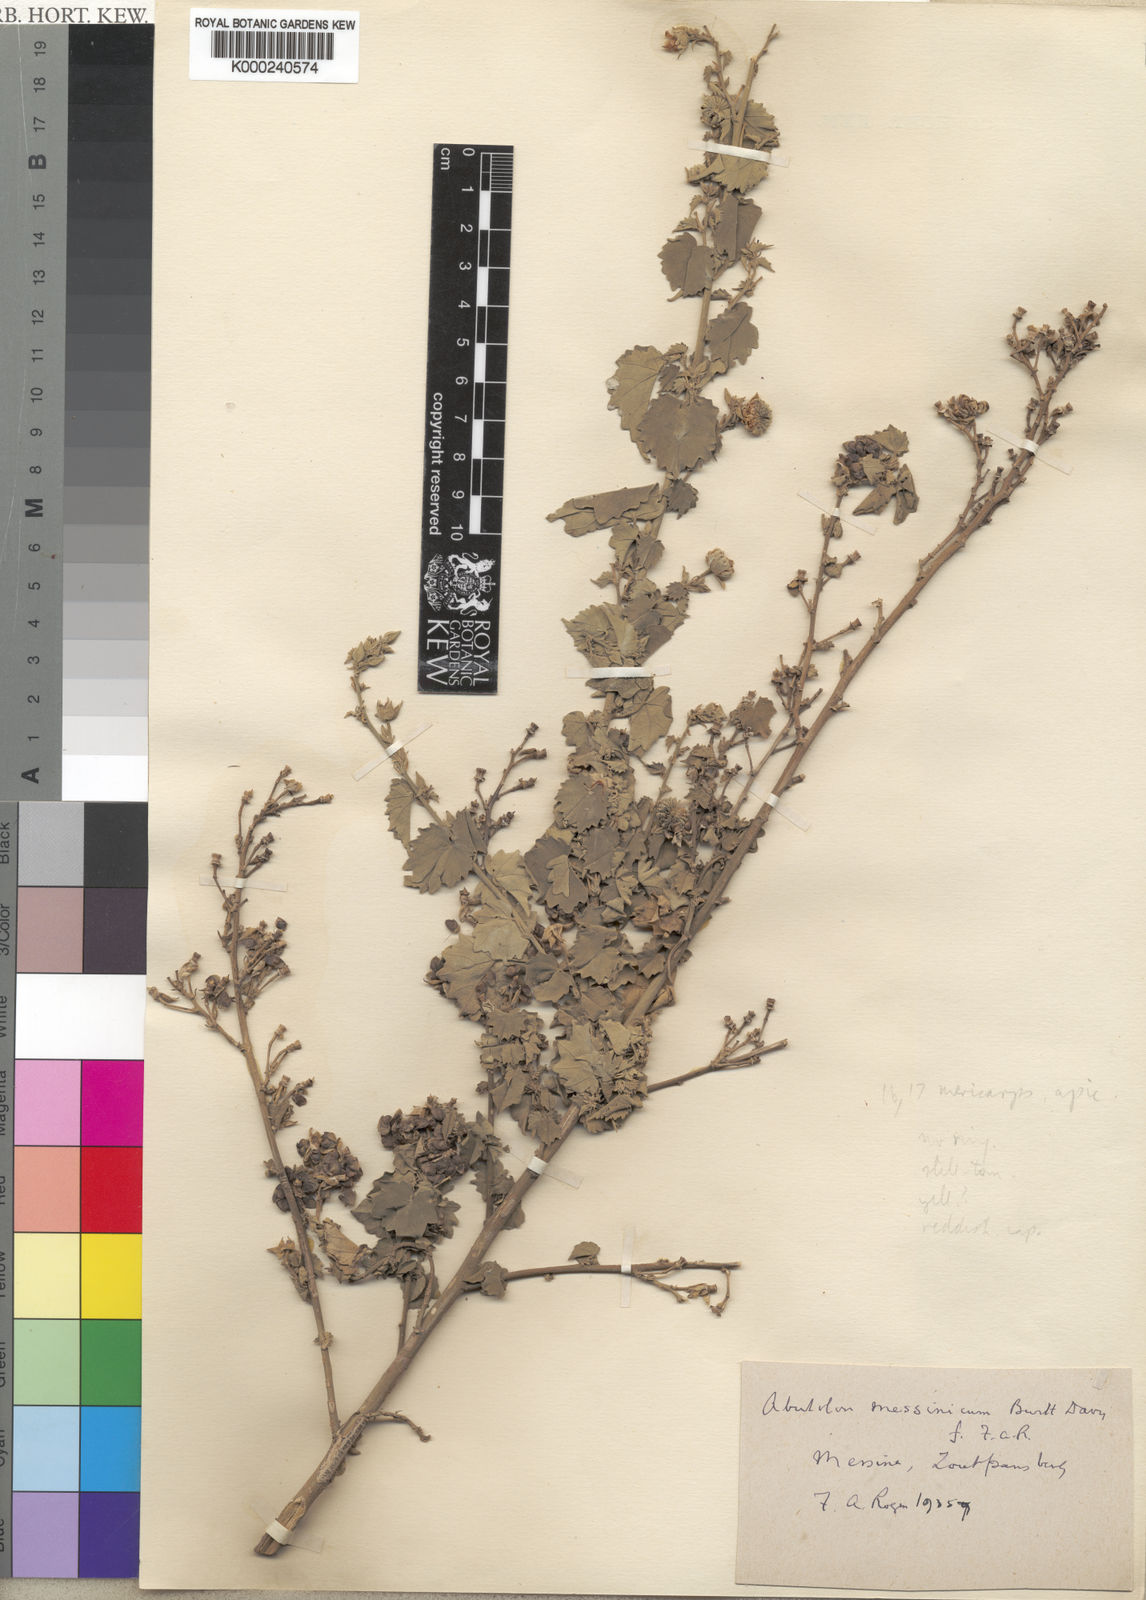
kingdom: Plantae
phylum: Tracheophyta
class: Magnoliopsida
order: Malvales
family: Malvaceae
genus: Abutilon
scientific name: Abutilon pycnodon
